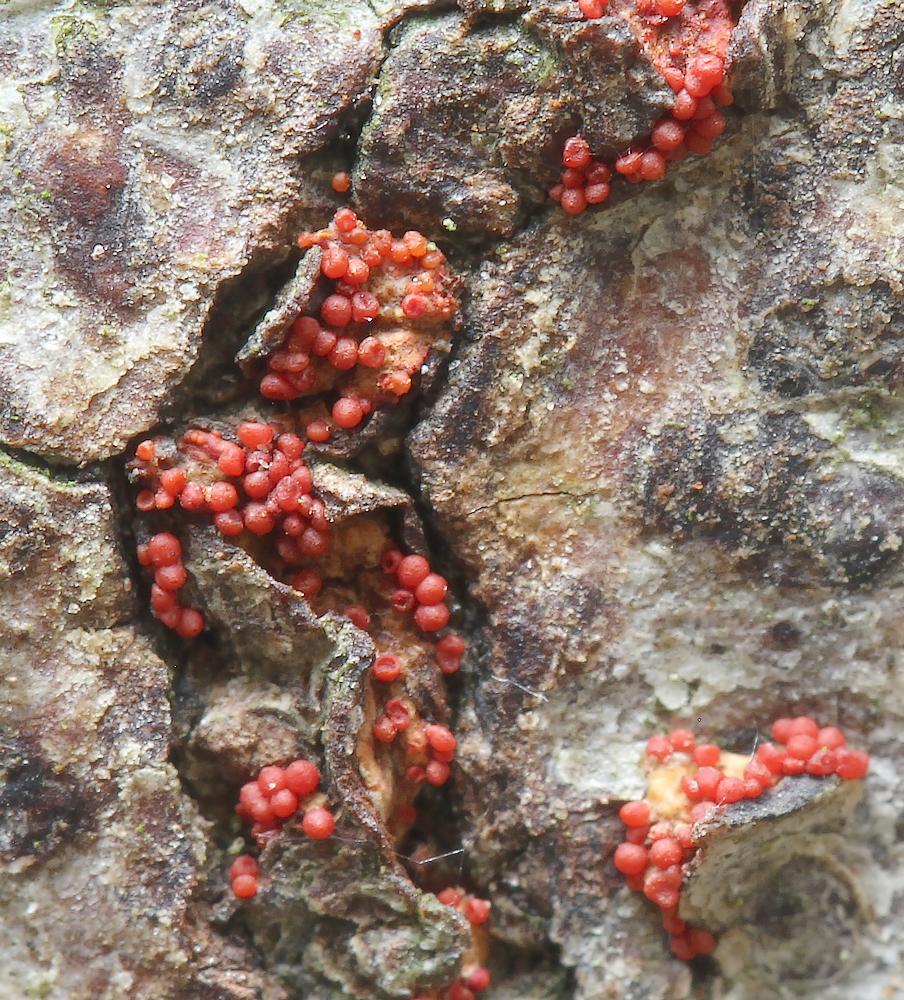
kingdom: Fungi
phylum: Ascomycota
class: Sordariomycetes
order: Hypocreales
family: Nectriaceae
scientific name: Nectriaceae
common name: cinnobersvampfamilien
